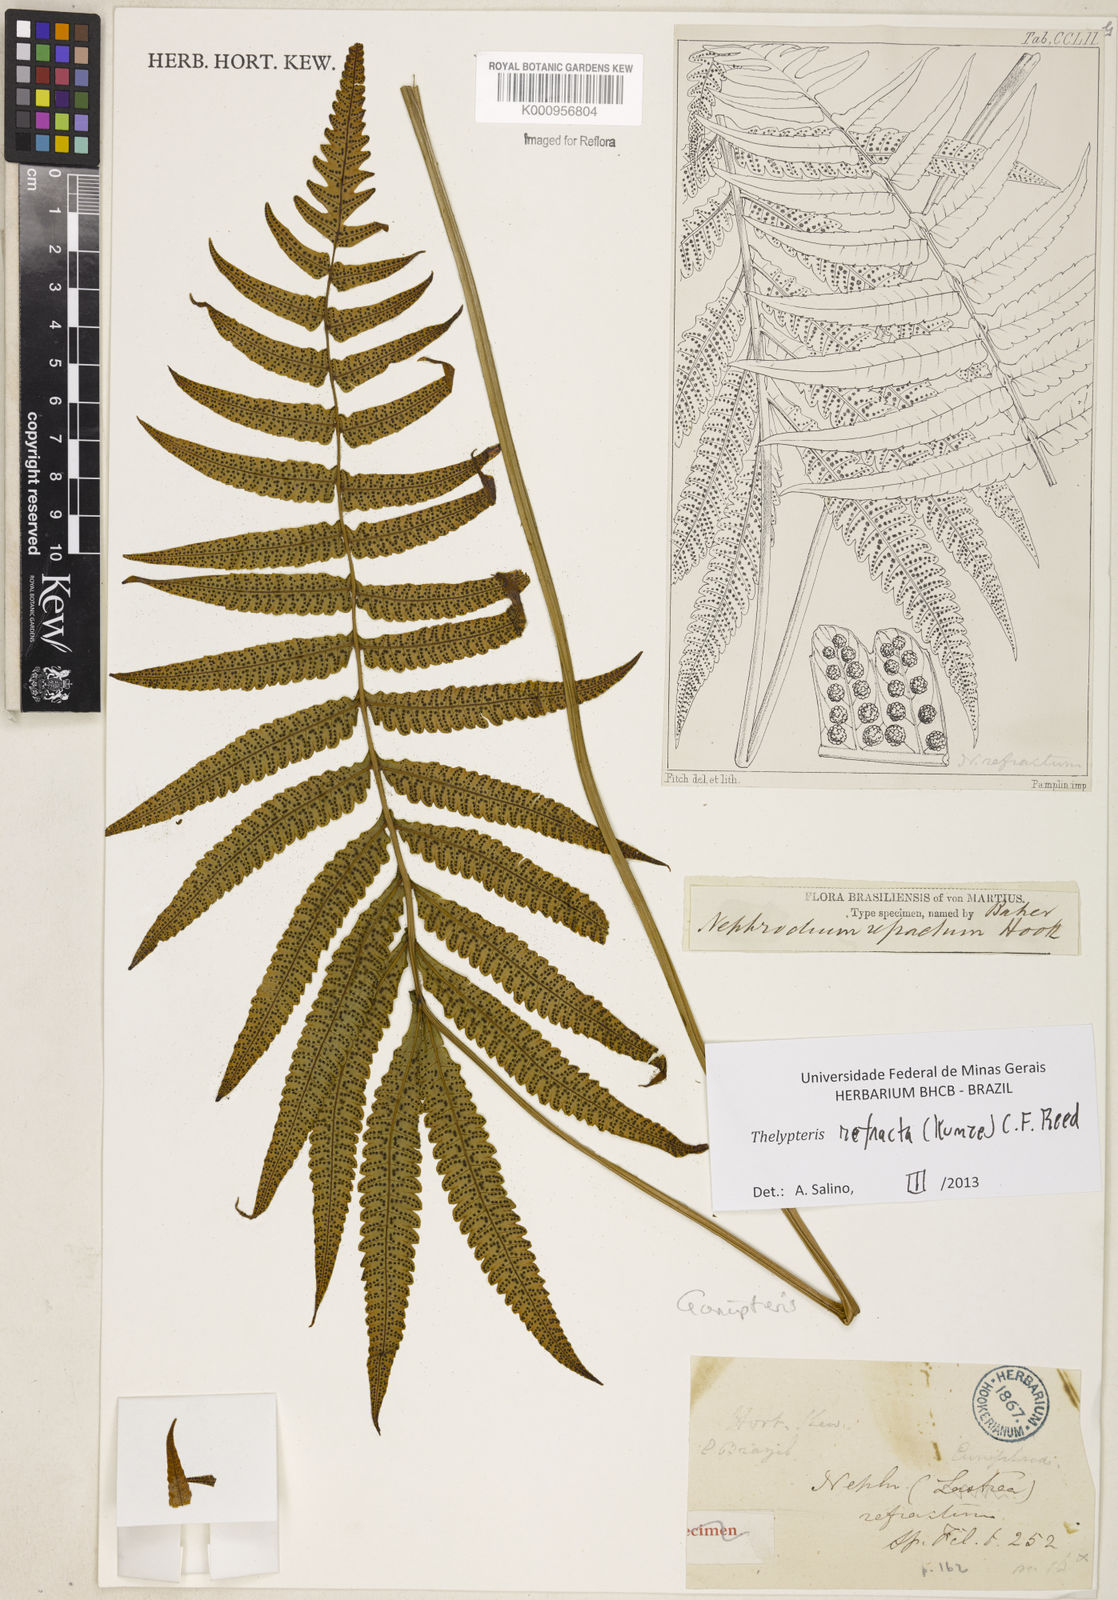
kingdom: Plantae
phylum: Tracheophyta
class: Polypodiopsida
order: Polypodiales
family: Thelypteridaceae
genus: Goniopteris
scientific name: Goniopteris refracta
